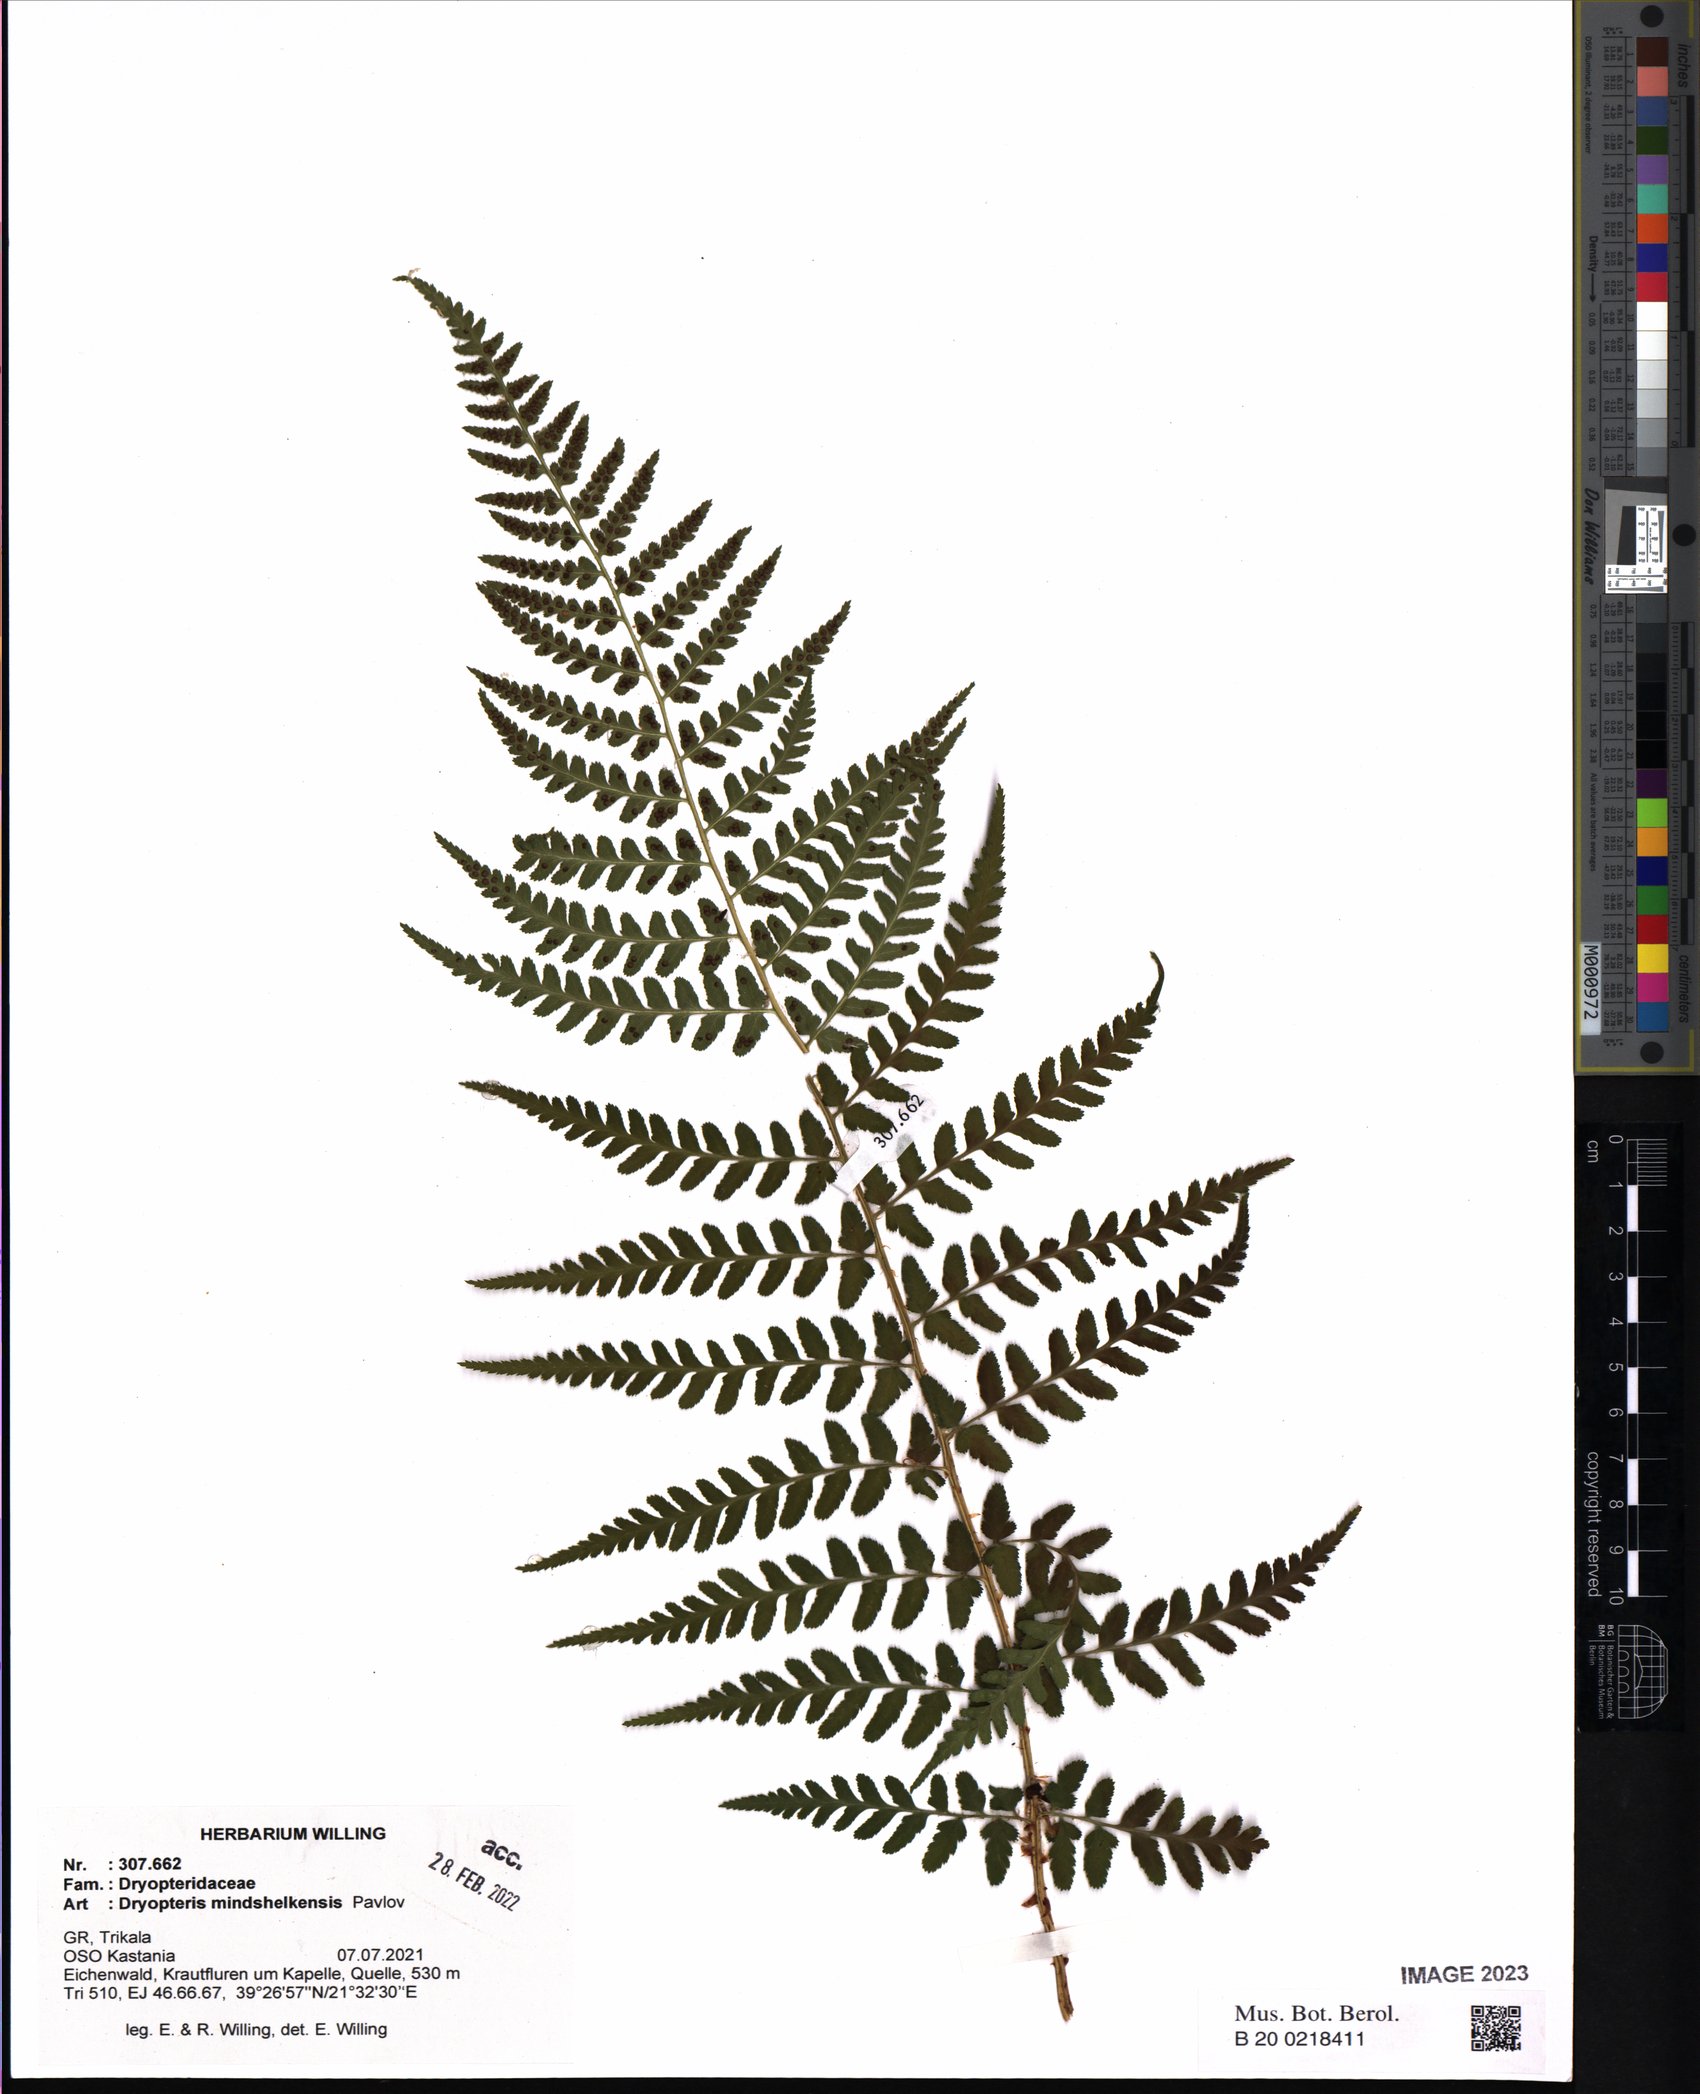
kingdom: Plantae
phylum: Tracheophyta
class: Polypodiopsida
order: Polypodiales
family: Dryopteridaceae
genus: Dryopteris
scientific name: Dryopteris mindshelkensis
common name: Limestone wood fern
